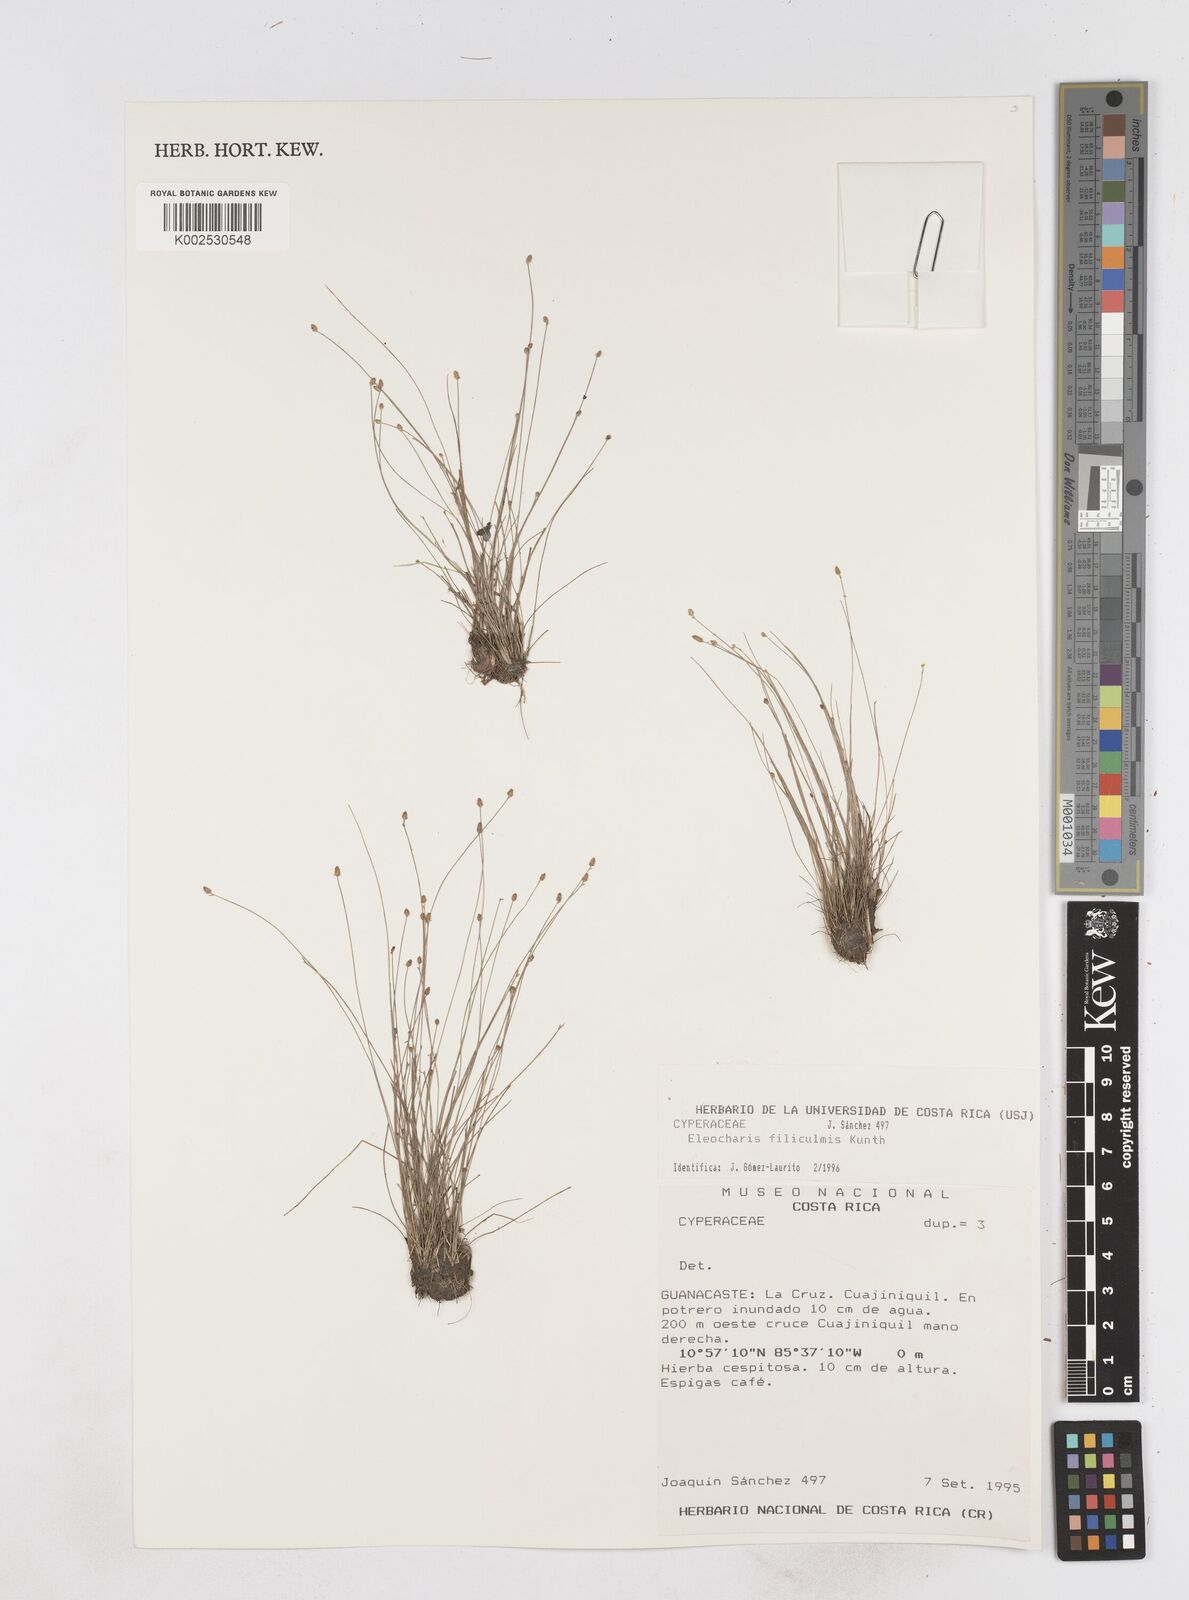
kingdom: Plantae
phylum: Tracheophyta
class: Liliopsida
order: Poales
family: Cyperaceae
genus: Eleocharis
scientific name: Eleocharis filiculmis
